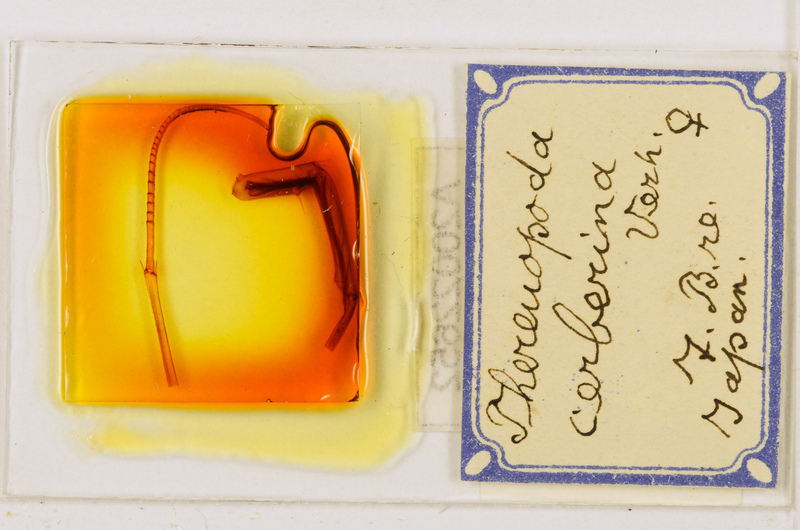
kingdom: Animalia
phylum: Arthropoda
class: Chilopoda
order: Scutigeromorpha
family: Scutigeridae
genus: Thereuopoda
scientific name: Thereuopoda longicornis
